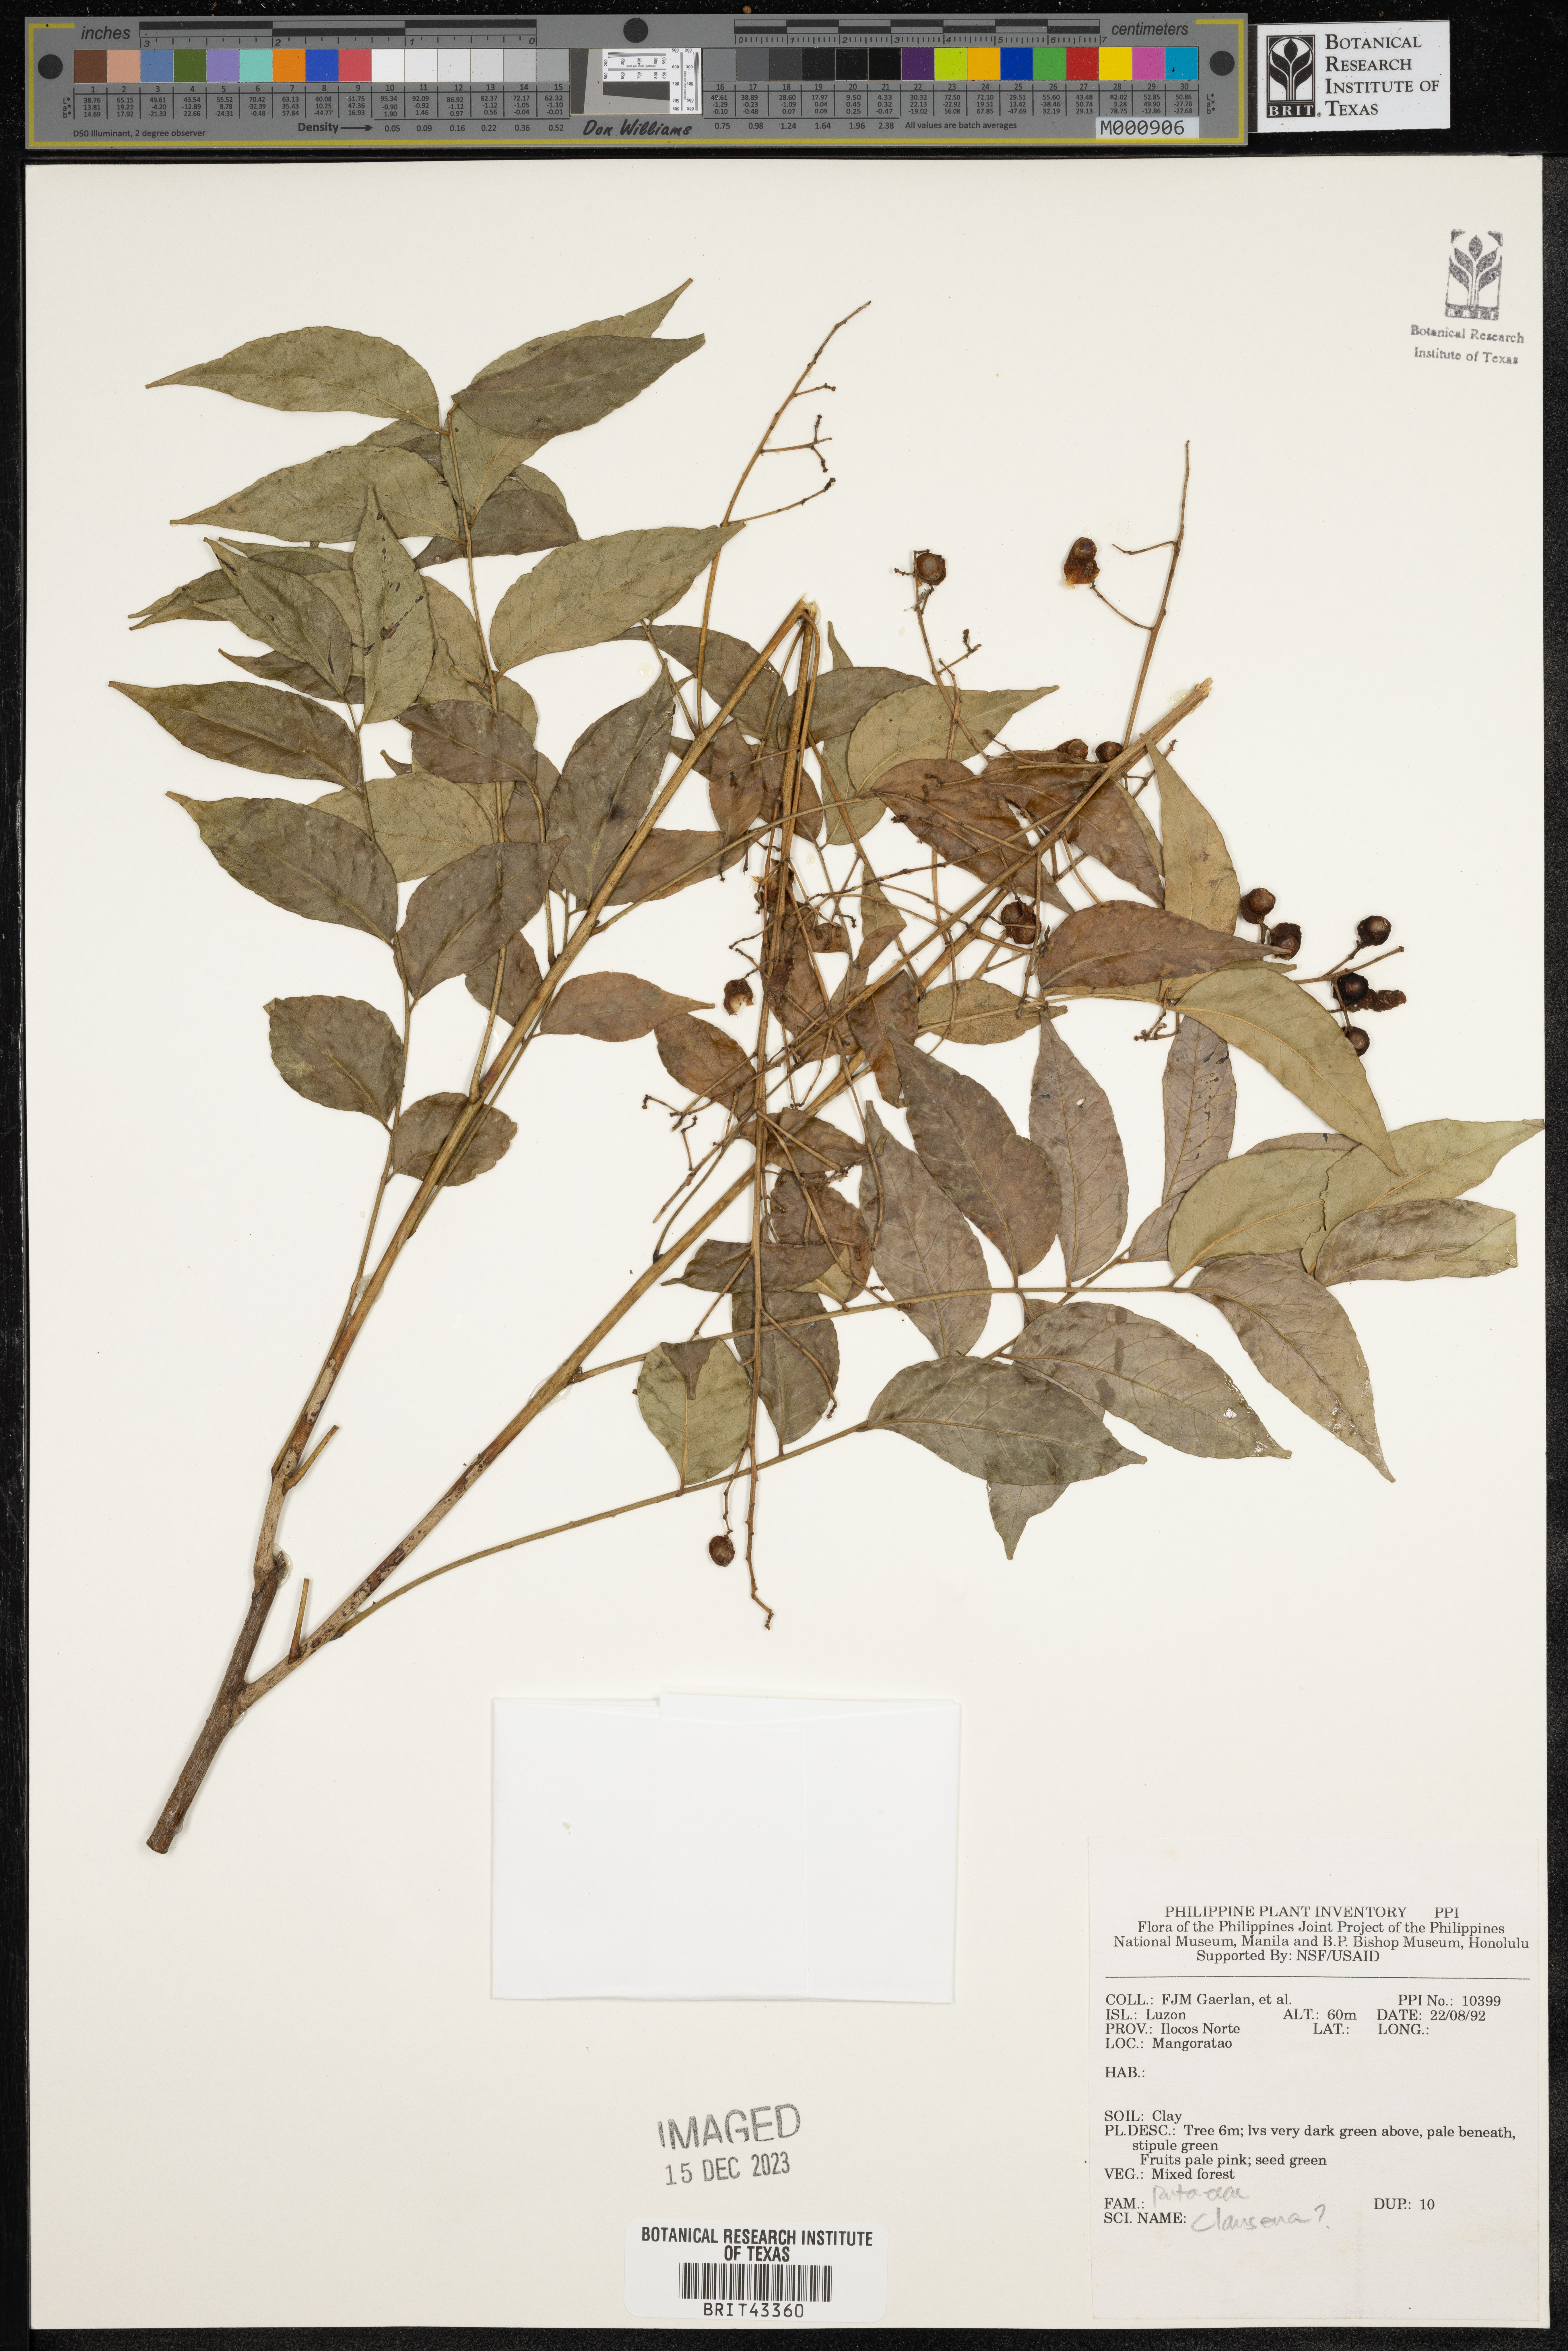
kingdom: Plantae
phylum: Tracheophyta
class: Magnoliopsida
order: Sapindales
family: Rutaceae
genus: Clausena
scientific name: Clausena
